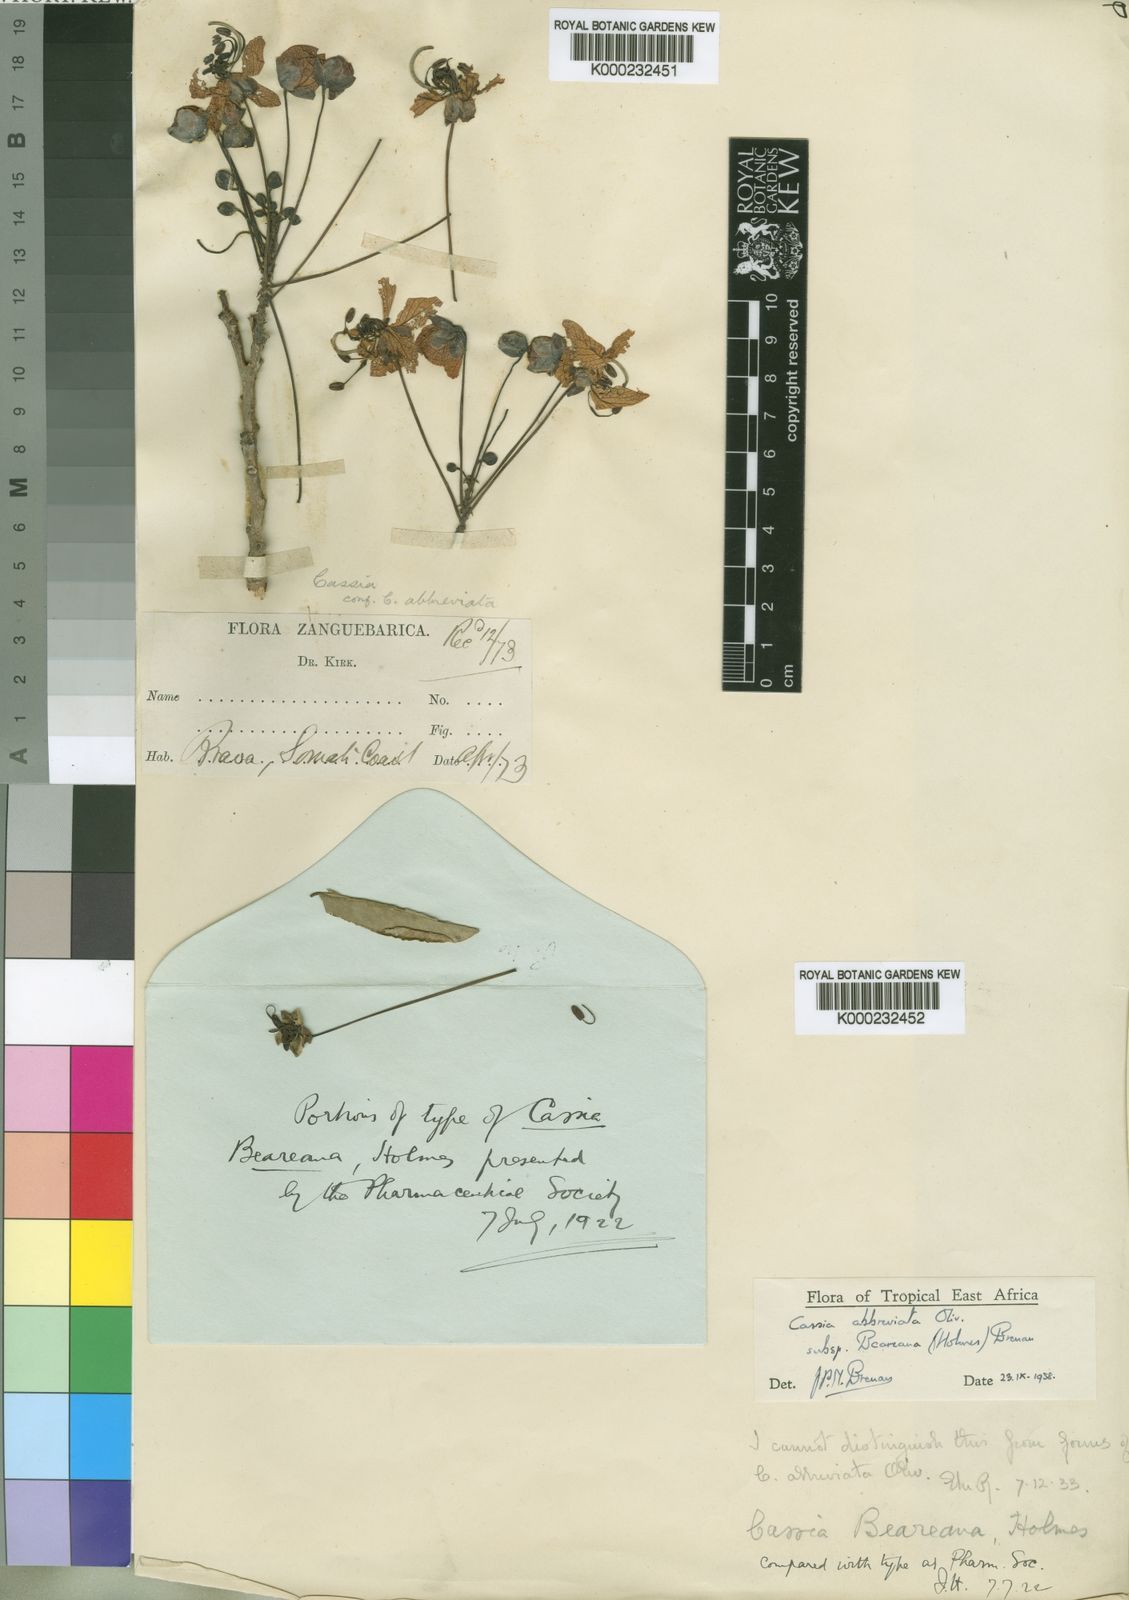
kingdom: Plantae
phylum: Tracheophyta
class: Magnoliopsida
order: Fabales
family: Fabaceae
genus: Cassia
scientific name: Cassia abbreviata
